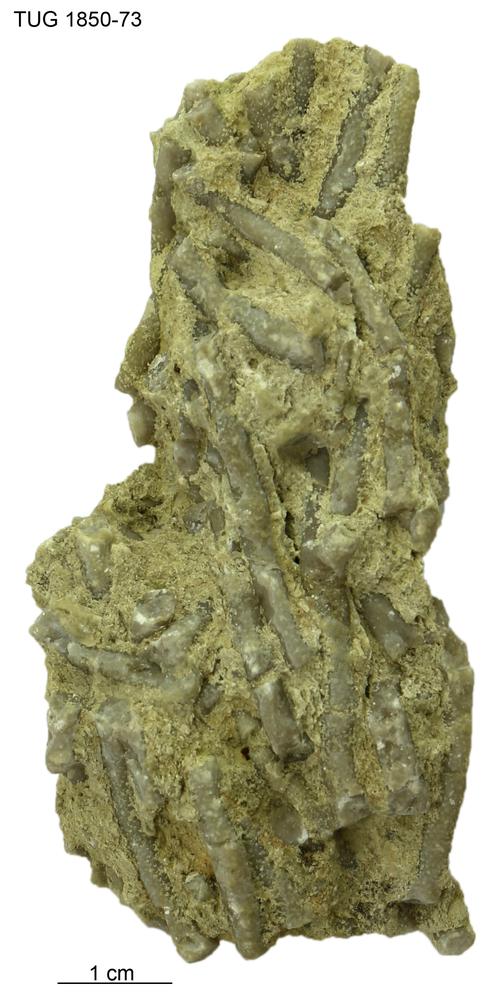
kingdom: Animalia
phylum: Cnidaria
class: Anthozoa
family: Coenitidae
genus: Coenites
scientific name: Coenites juniperinus
